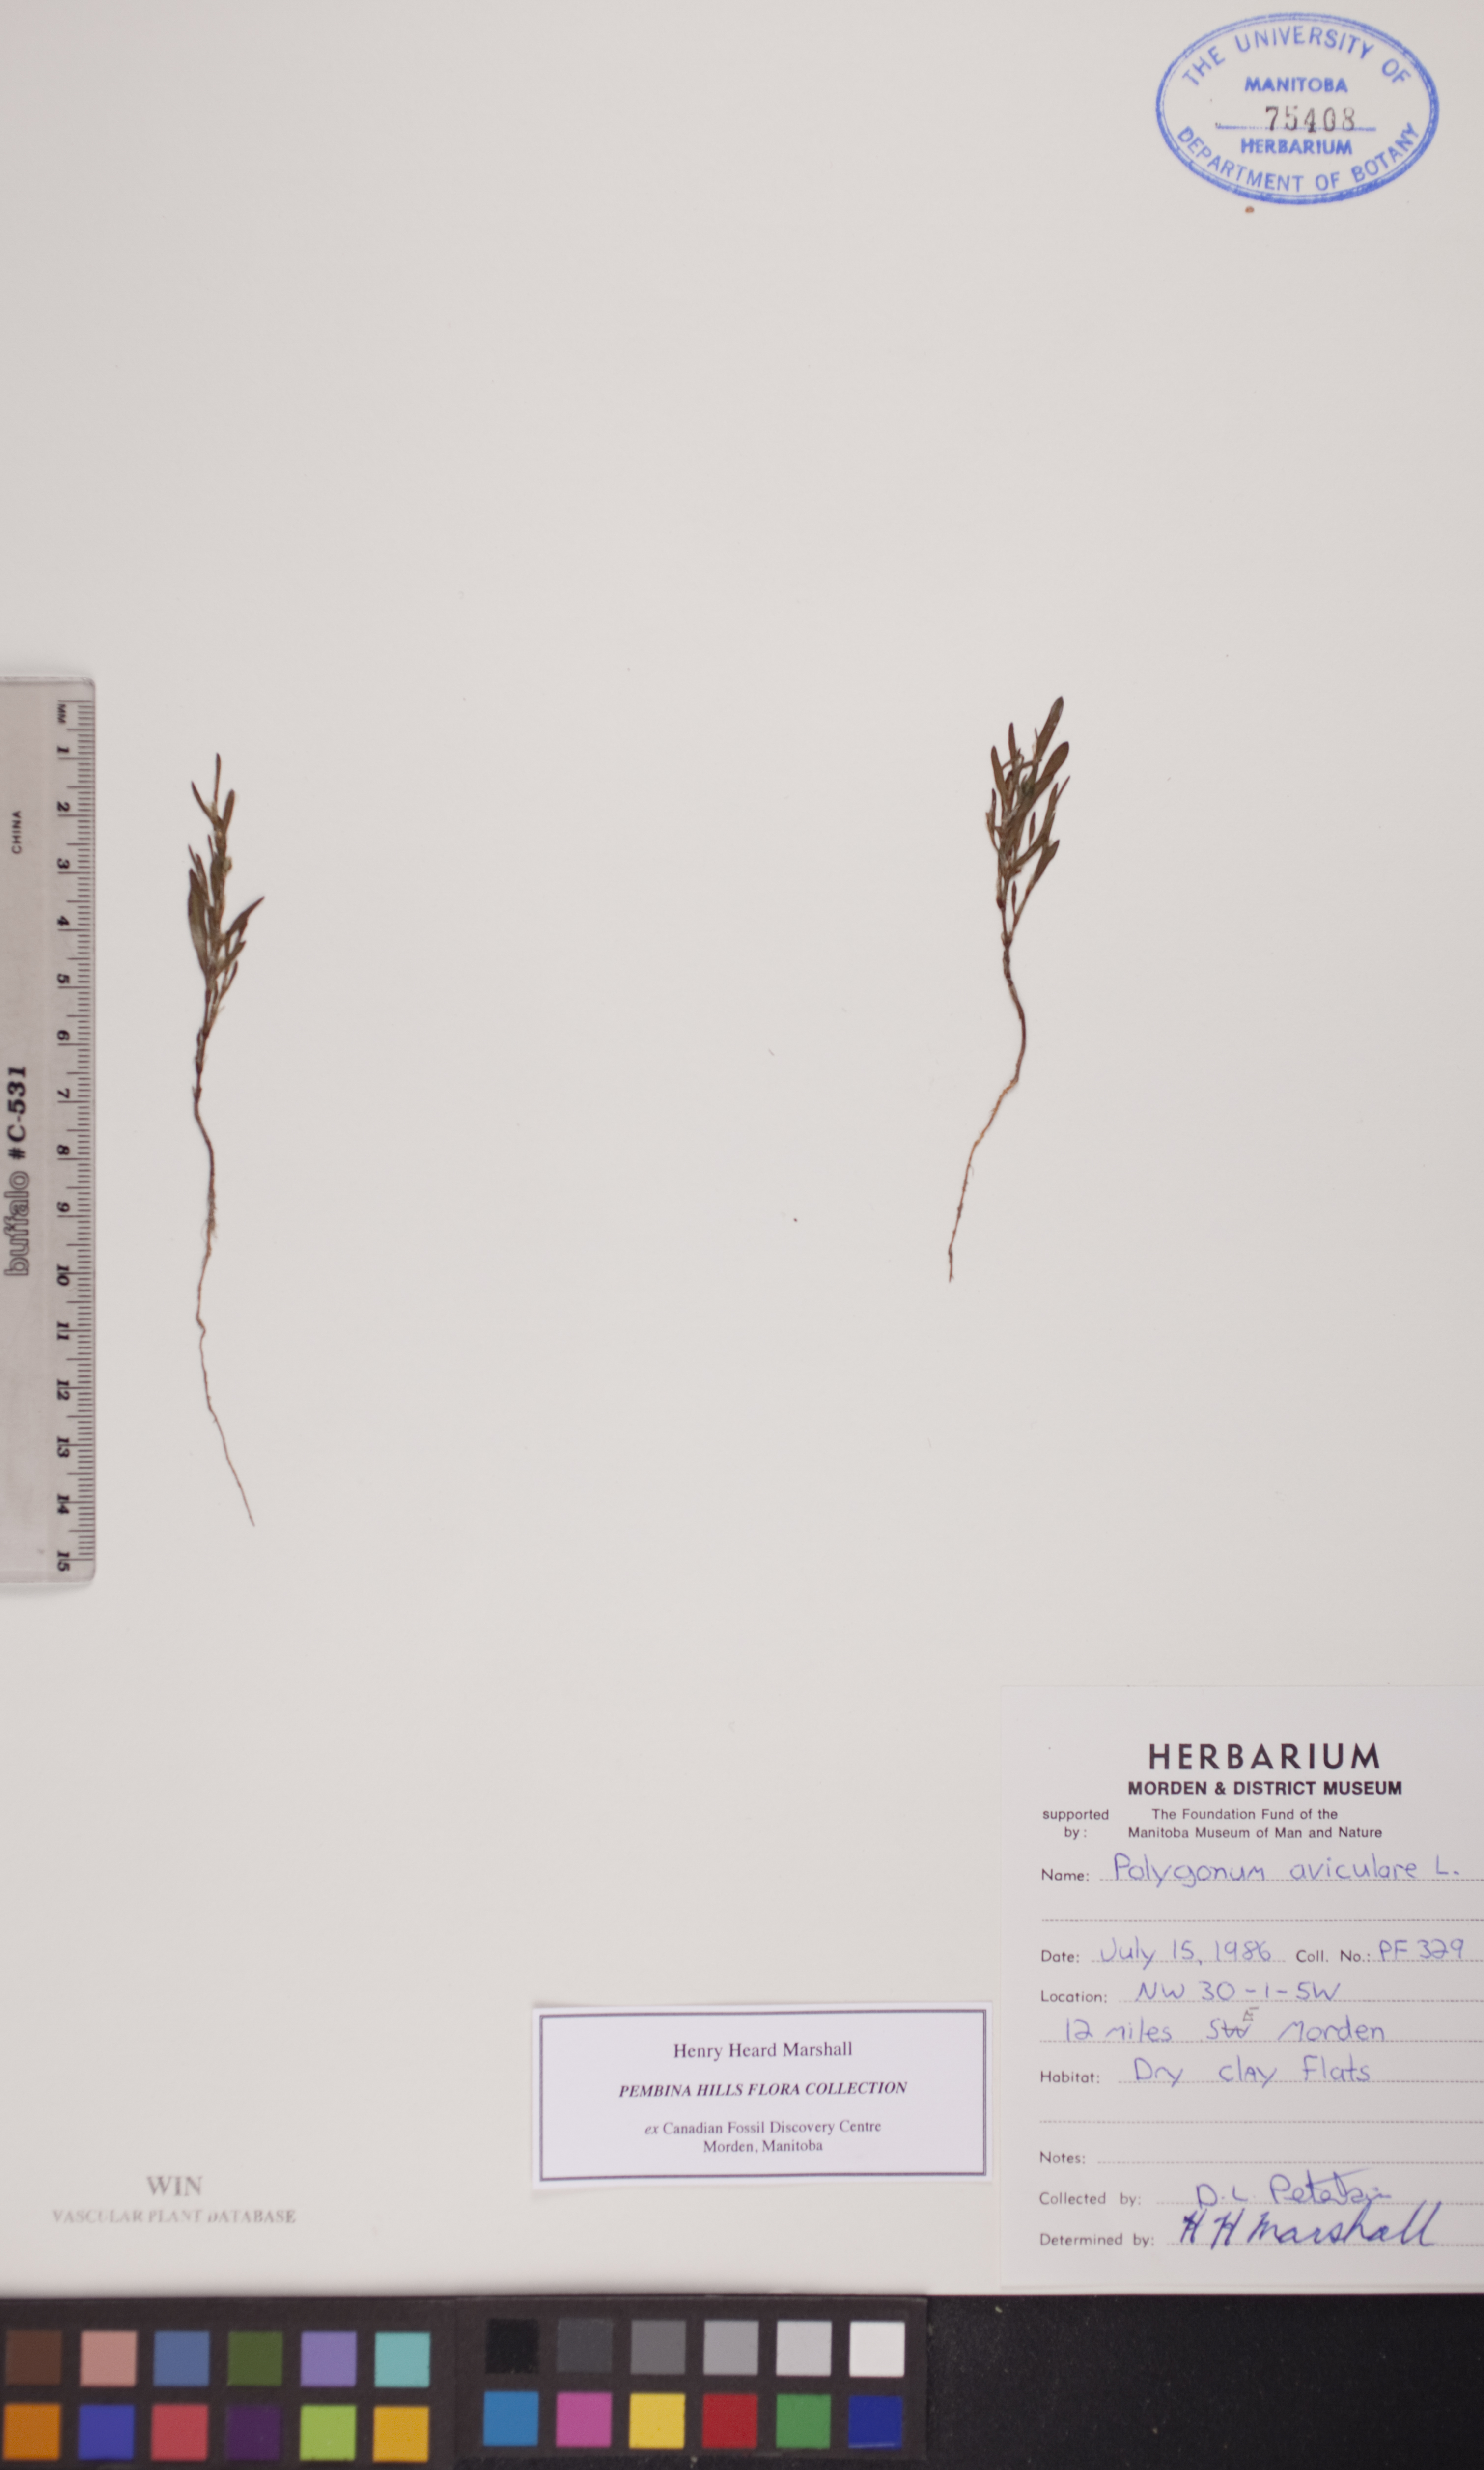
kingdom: Plantae
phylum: Tracheophyta
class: Magnoliopsida
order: Caryophyllales
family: Polygonaceae
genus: Polygonum
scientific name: Polygonum aviculare
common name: Prostrate knotweed
